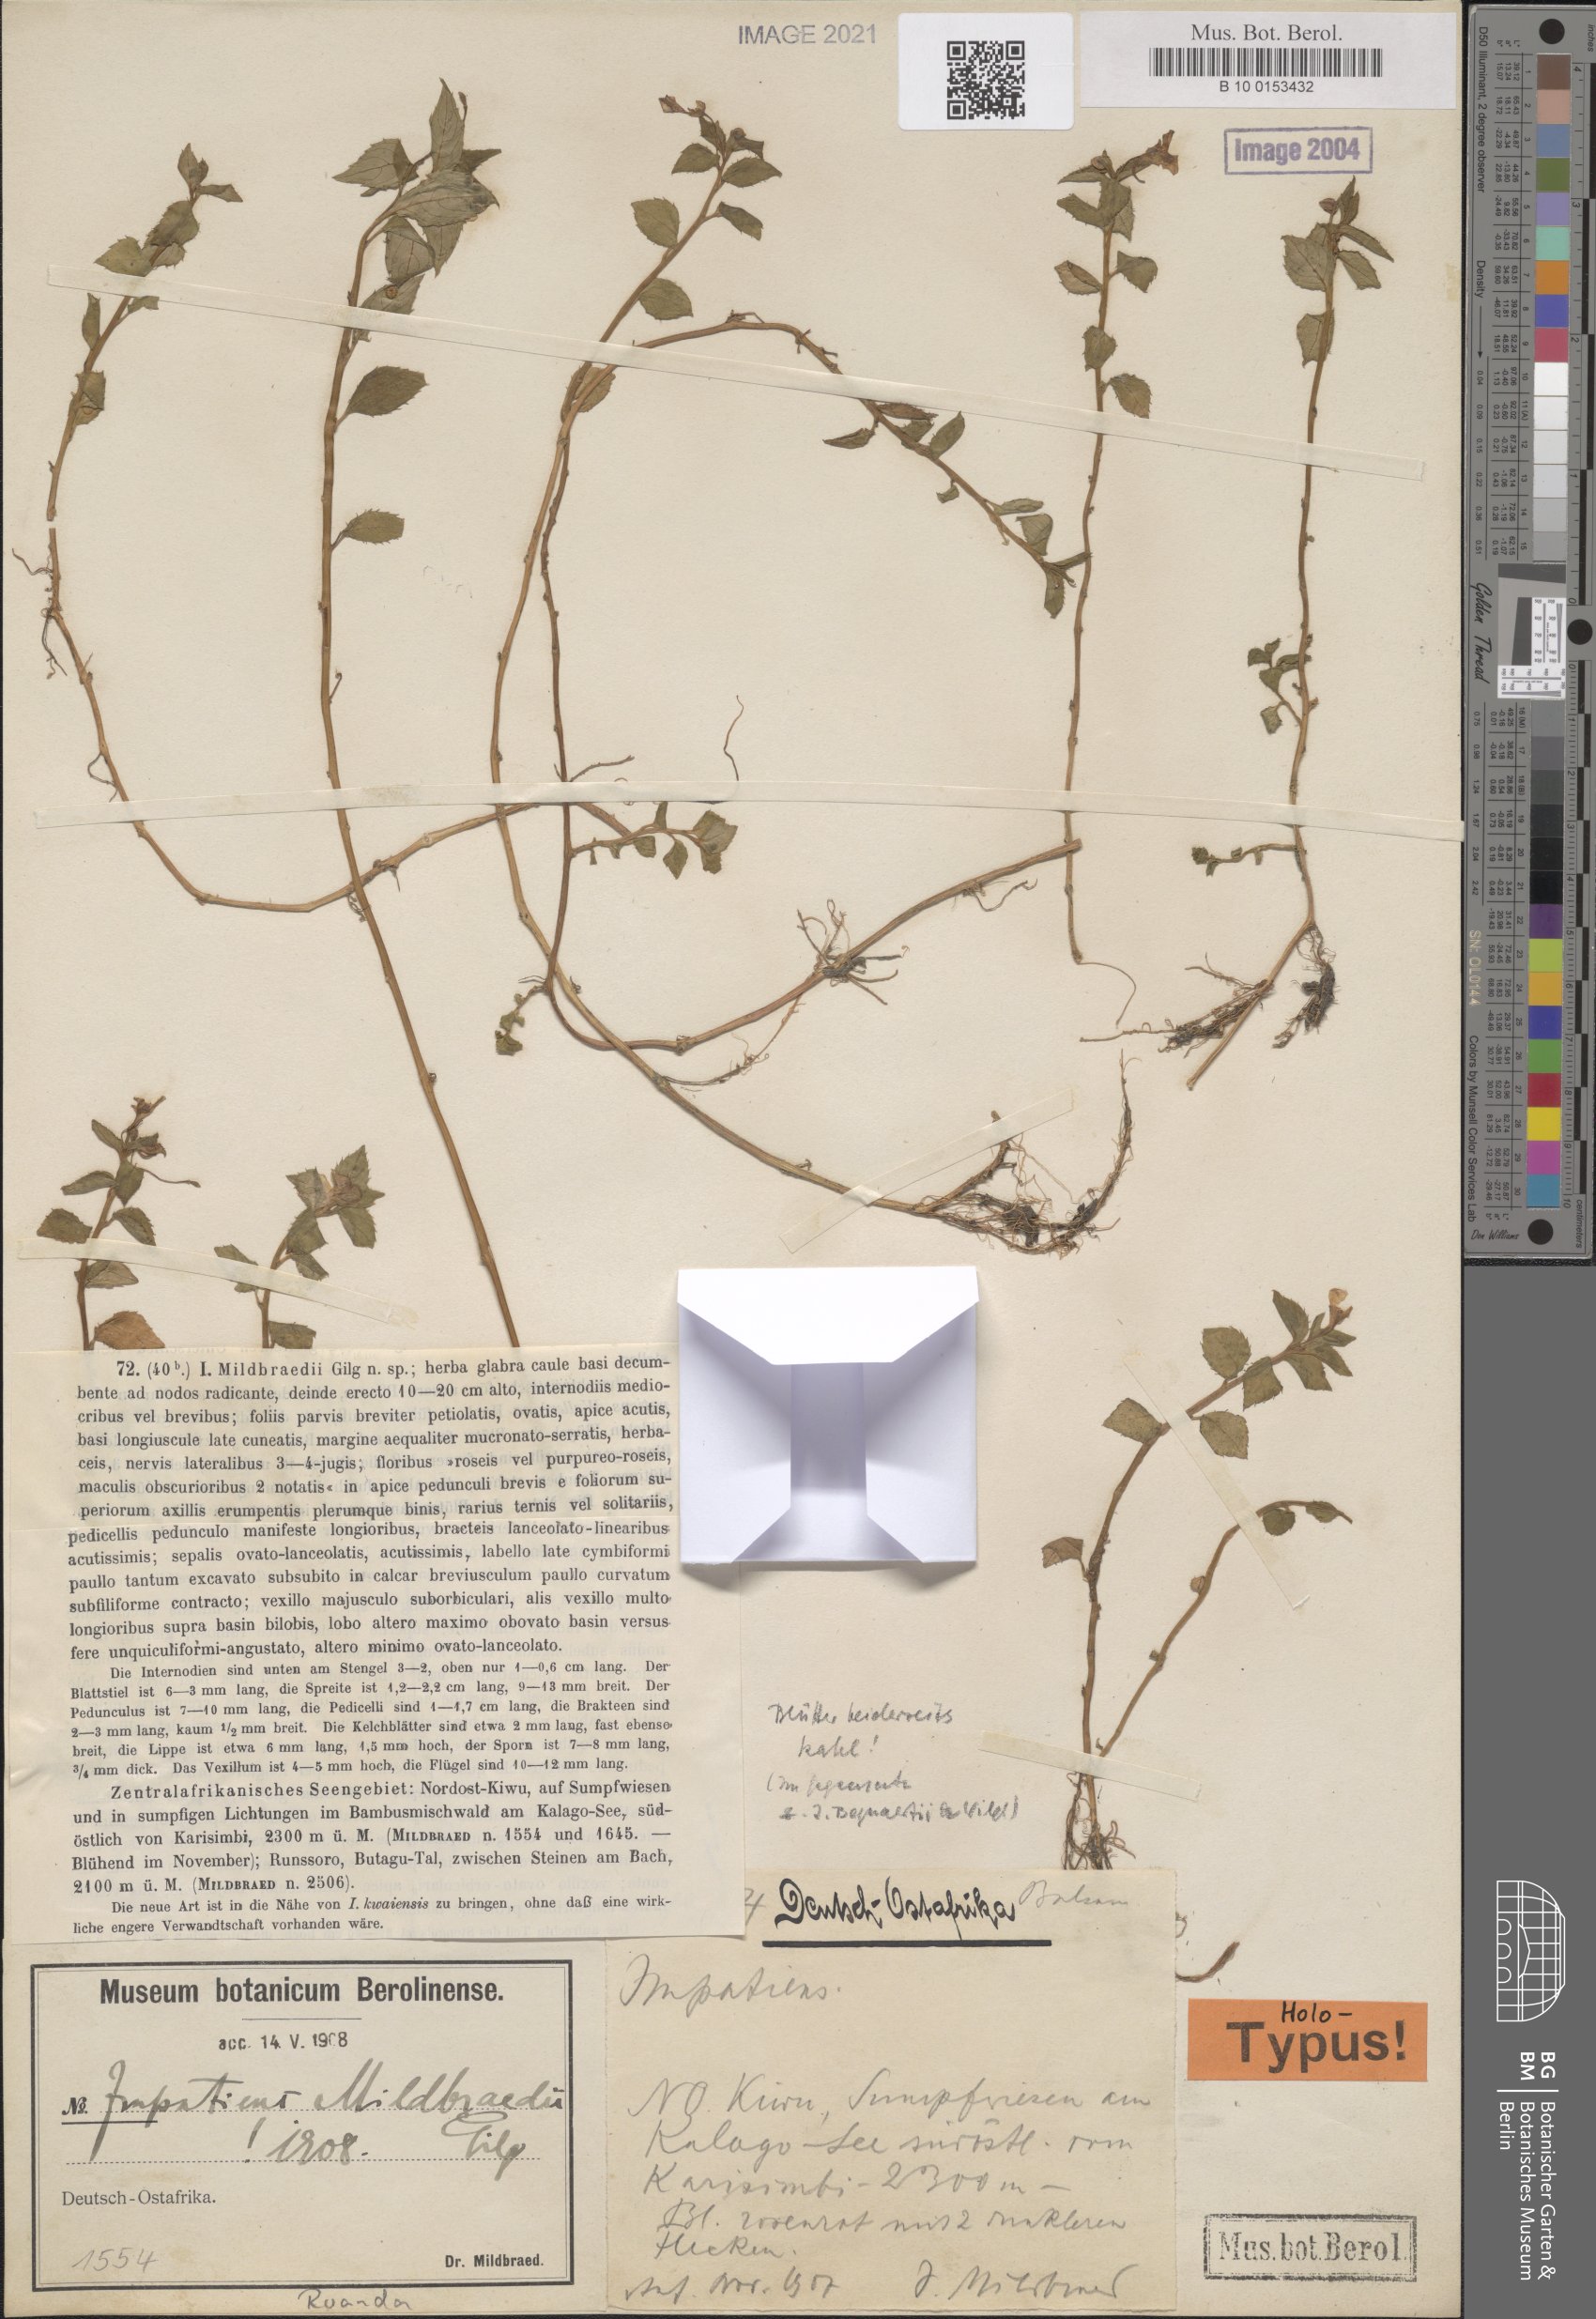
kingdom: Plantae
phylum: Tracheophyta
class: Magnoliopsida
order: Ericales
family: Balsaminaceae
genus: Impatiens
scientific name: Impatiens mildbraedii
